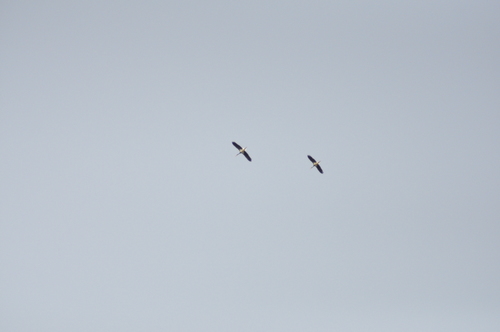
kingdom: Animalia
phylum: Chordata
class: Aves
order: Ciconiiformes
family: Ciconiidae
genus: Ciconia
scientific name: Ciconia nigra
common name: Black stork
